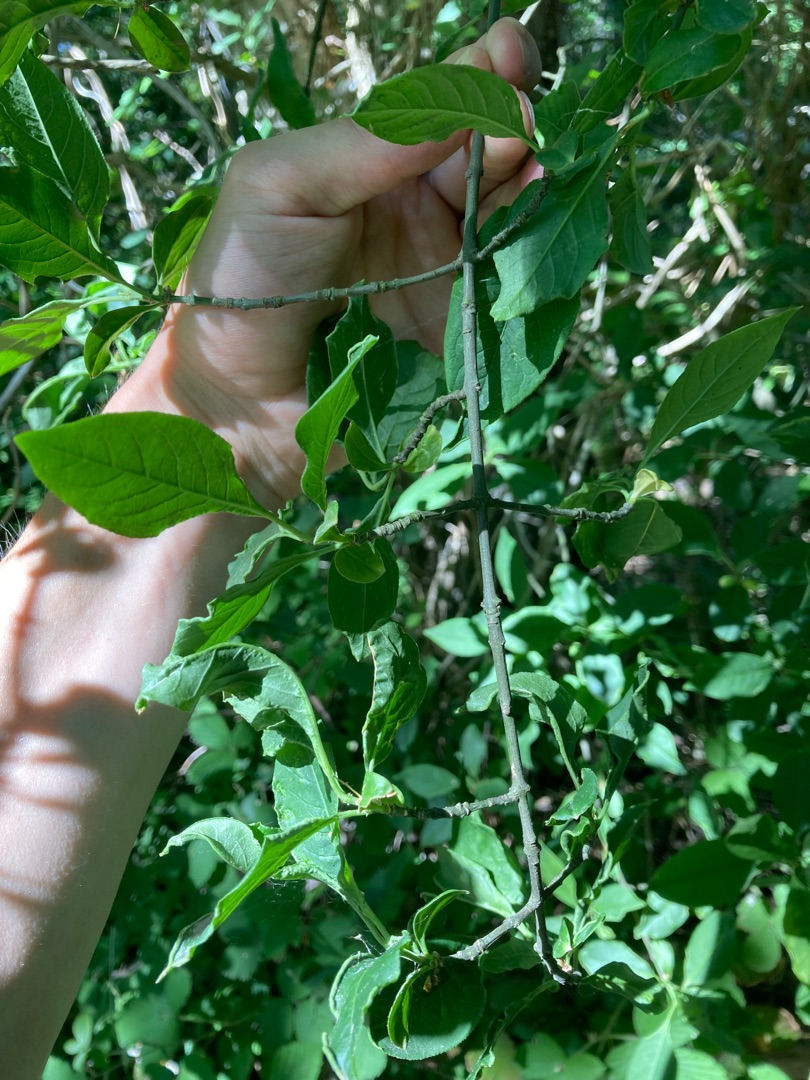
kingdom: Plantae
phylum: Tracheophyta
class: Magnoliopsida
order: Celastrales
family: Celastraceae
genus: Euonymus
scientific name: Euonymus europaeus
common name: Benved
